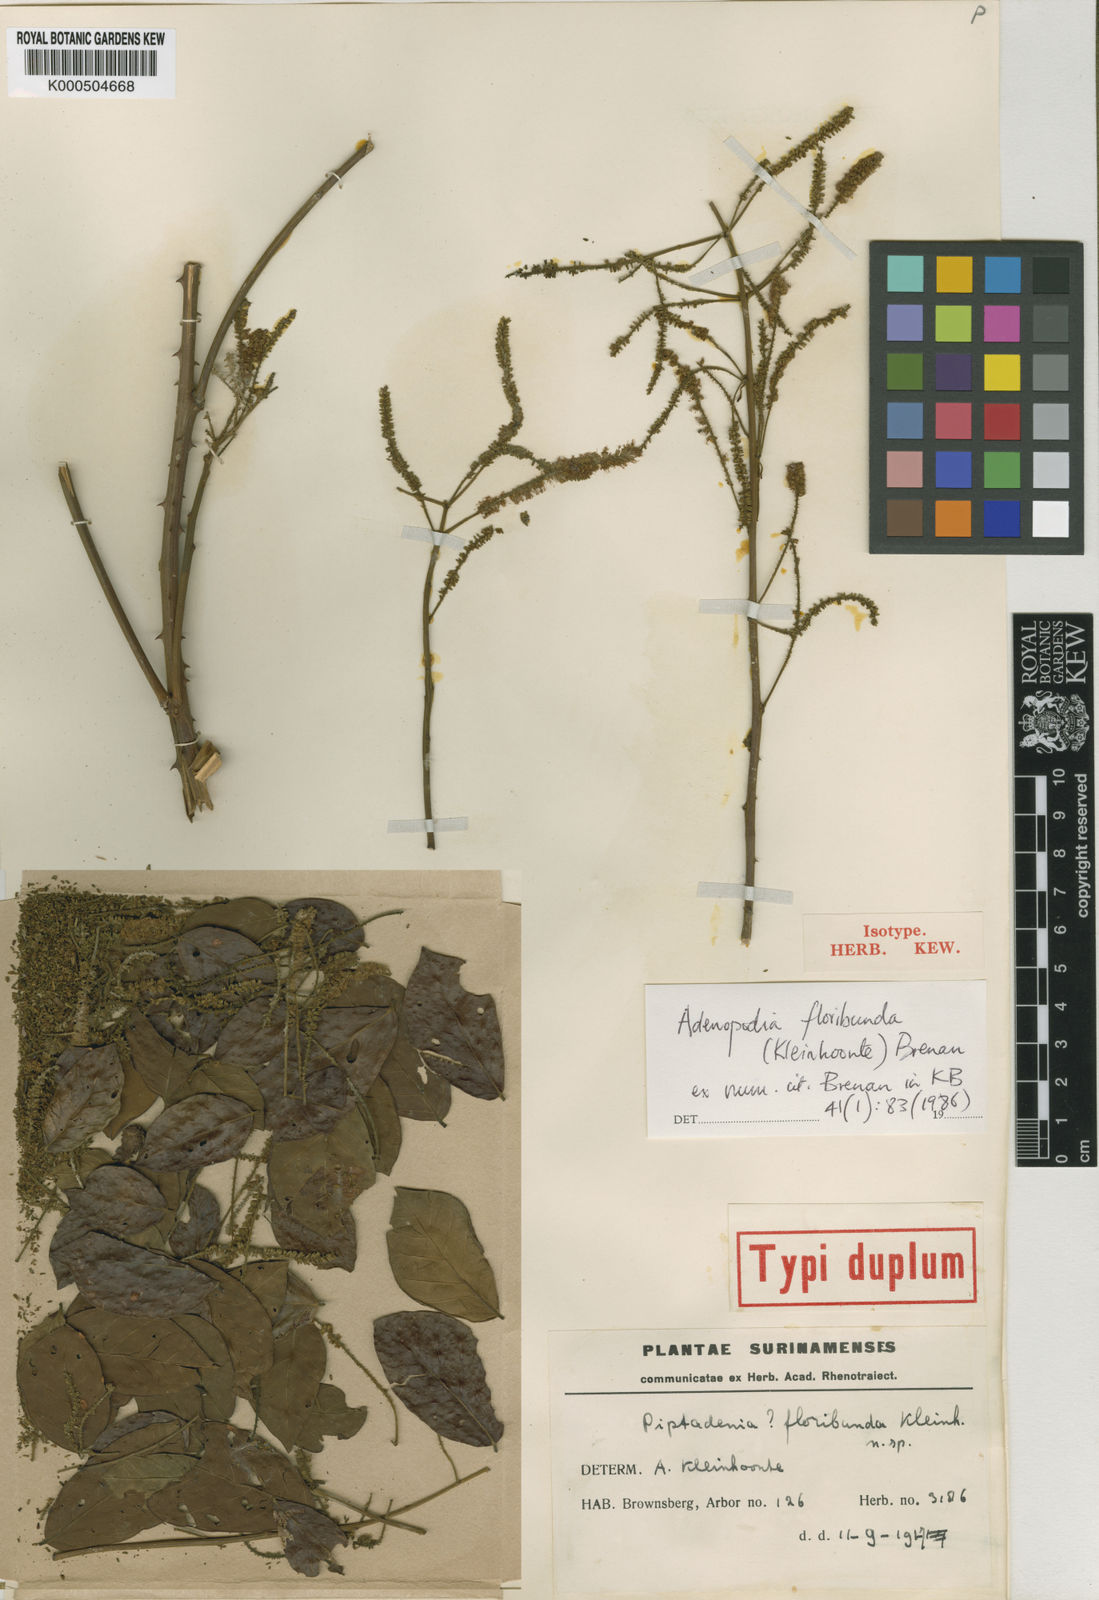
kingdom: Plantae
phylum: Tracheophyta
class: Magnoliopsida
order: Fabales
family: Fabaceae
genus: Piptadenia
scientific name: Piptadenia floribunda
